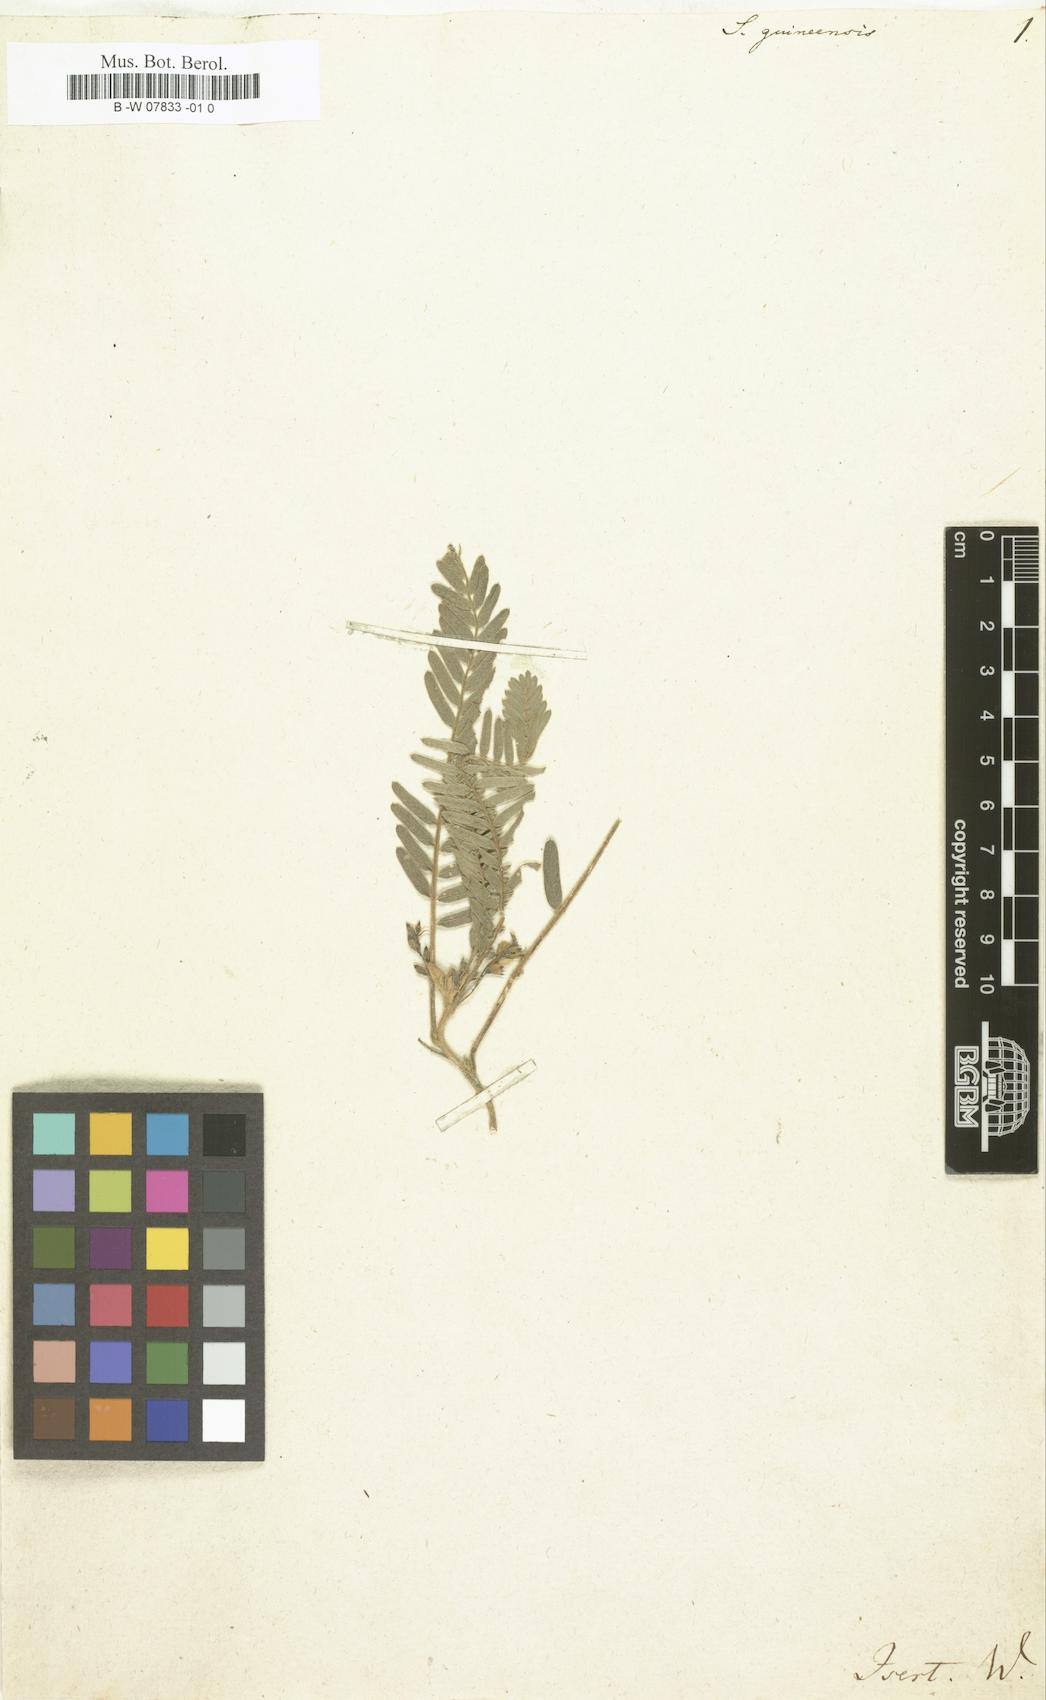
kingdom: Plantae
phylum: Tracheophyta
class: Magnoliopsida
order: Fabales
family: Fabaceae
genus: Sophora
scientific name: Sophora
